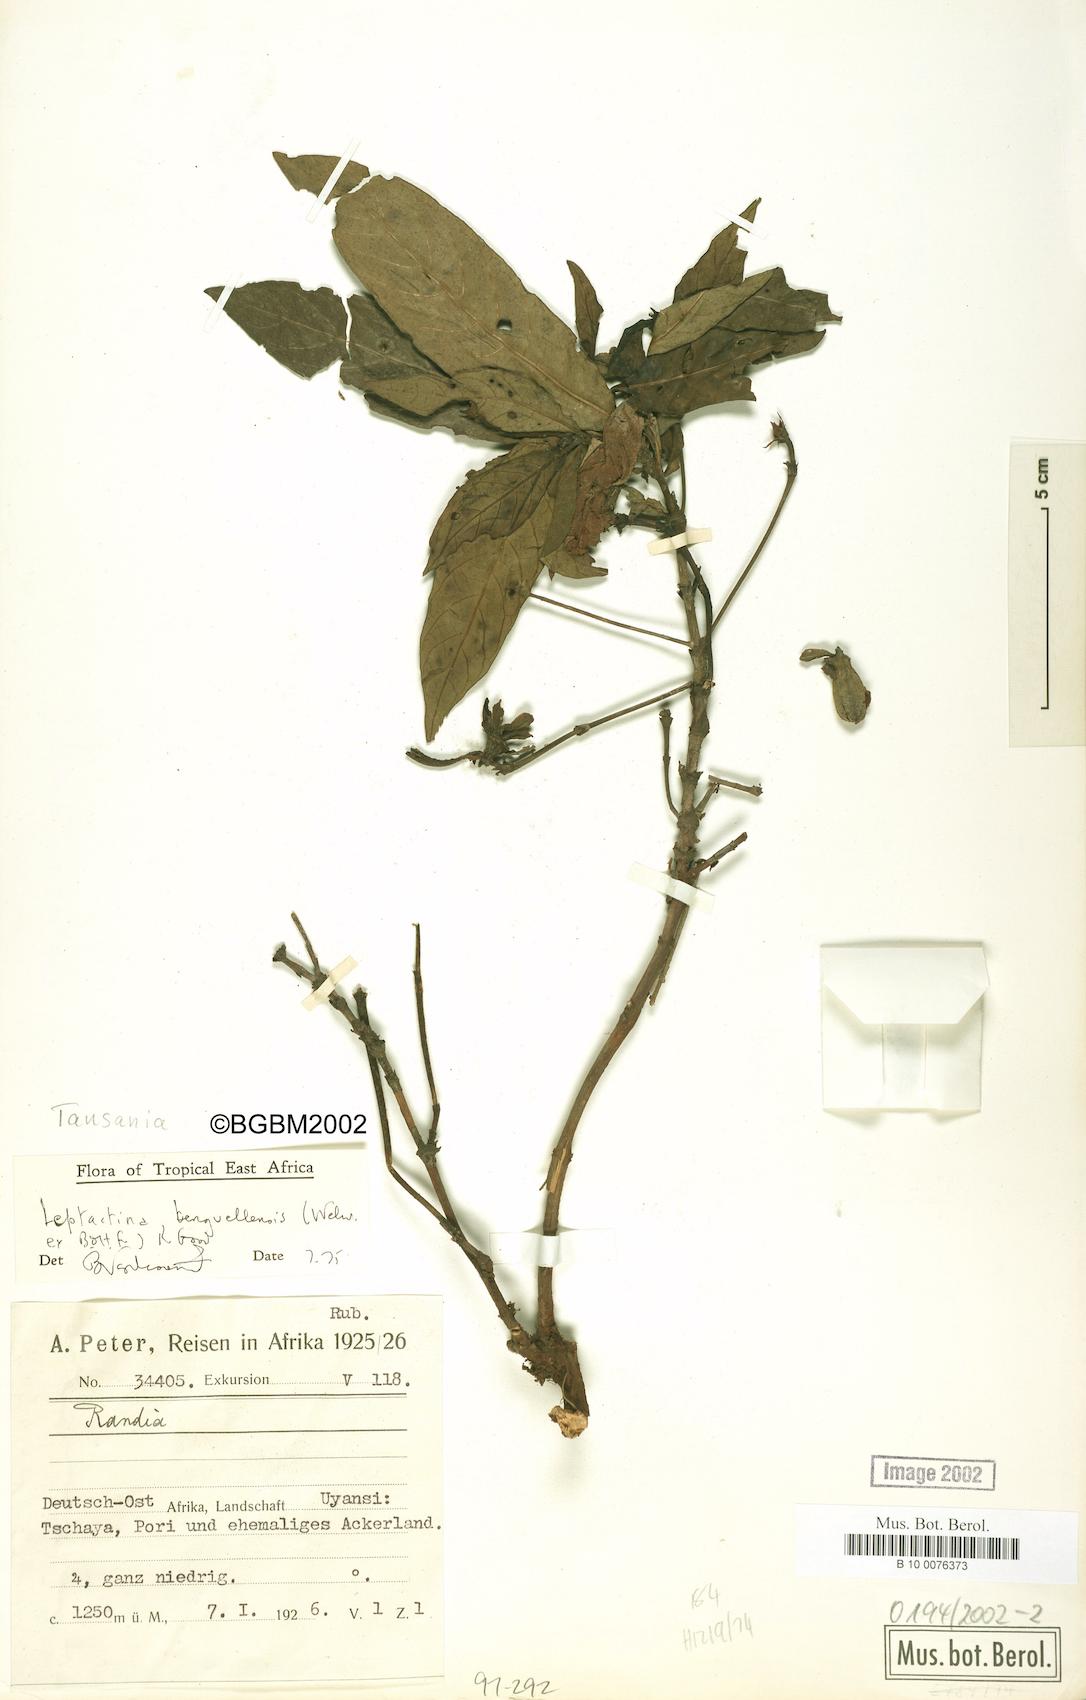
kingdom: Plantae
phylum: Tracheophyta
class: Magnoliopsida
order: Gentianales
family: Rubiaceae
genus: Leptactina
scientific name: Leptactina benguelensis
